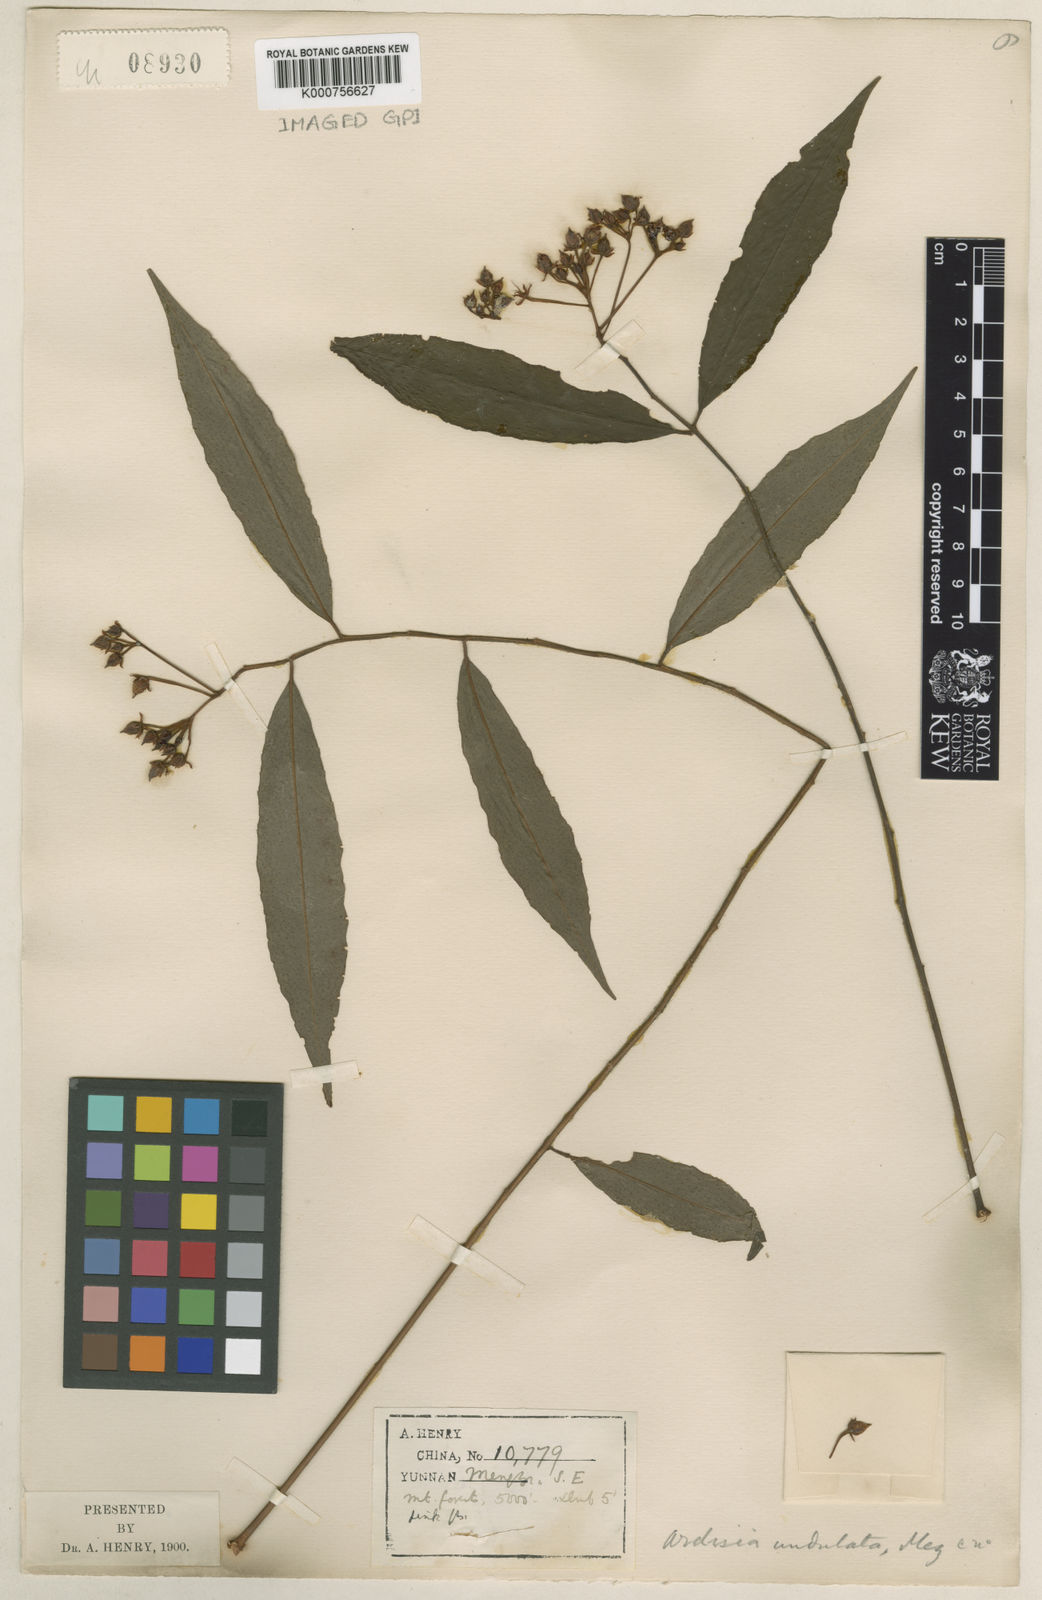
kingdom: Plantae
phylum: Tracheophyta
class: Magnoliopsida
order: Ericales
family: Primulaceae
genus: Ardisia
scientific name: Ardisia conspersa
